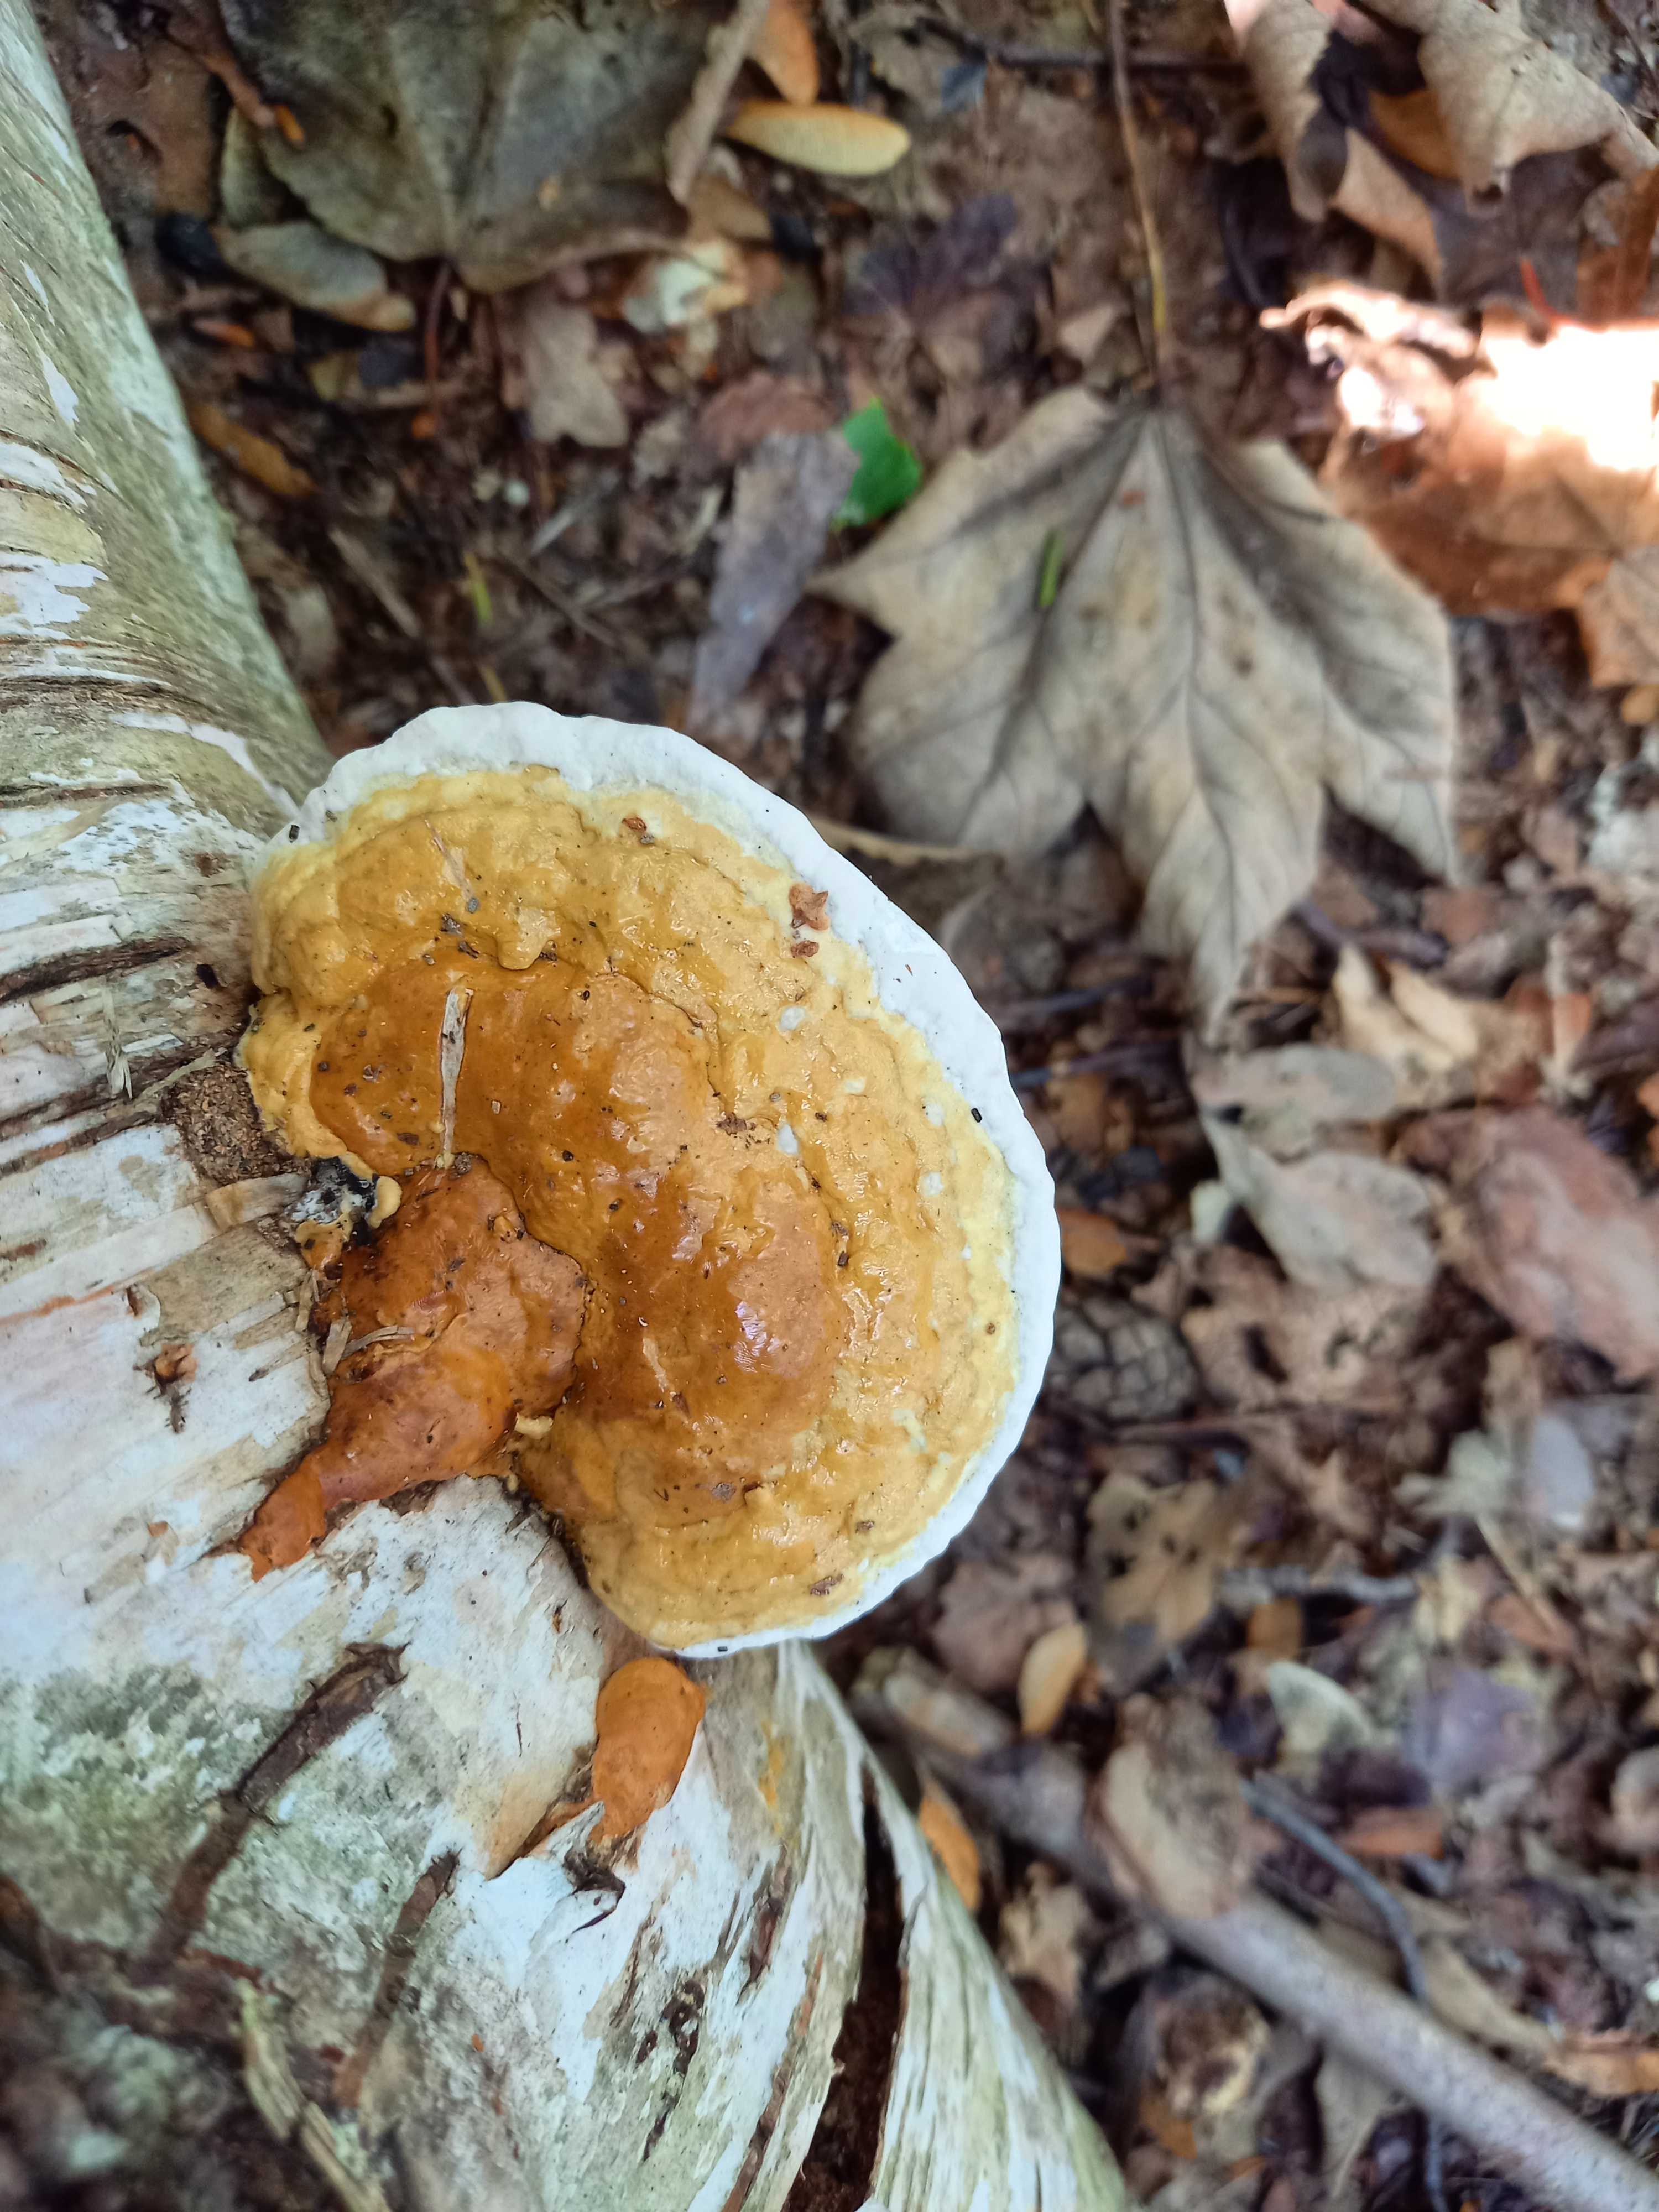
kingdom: Fungi
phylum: Basidiomycota
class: Agaricomycetes
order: Polyporales
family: Fomitopsidaceae
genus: Fomitopsis
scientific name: Fomitopsis pinicola
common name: randbæltet hovporesvamp
